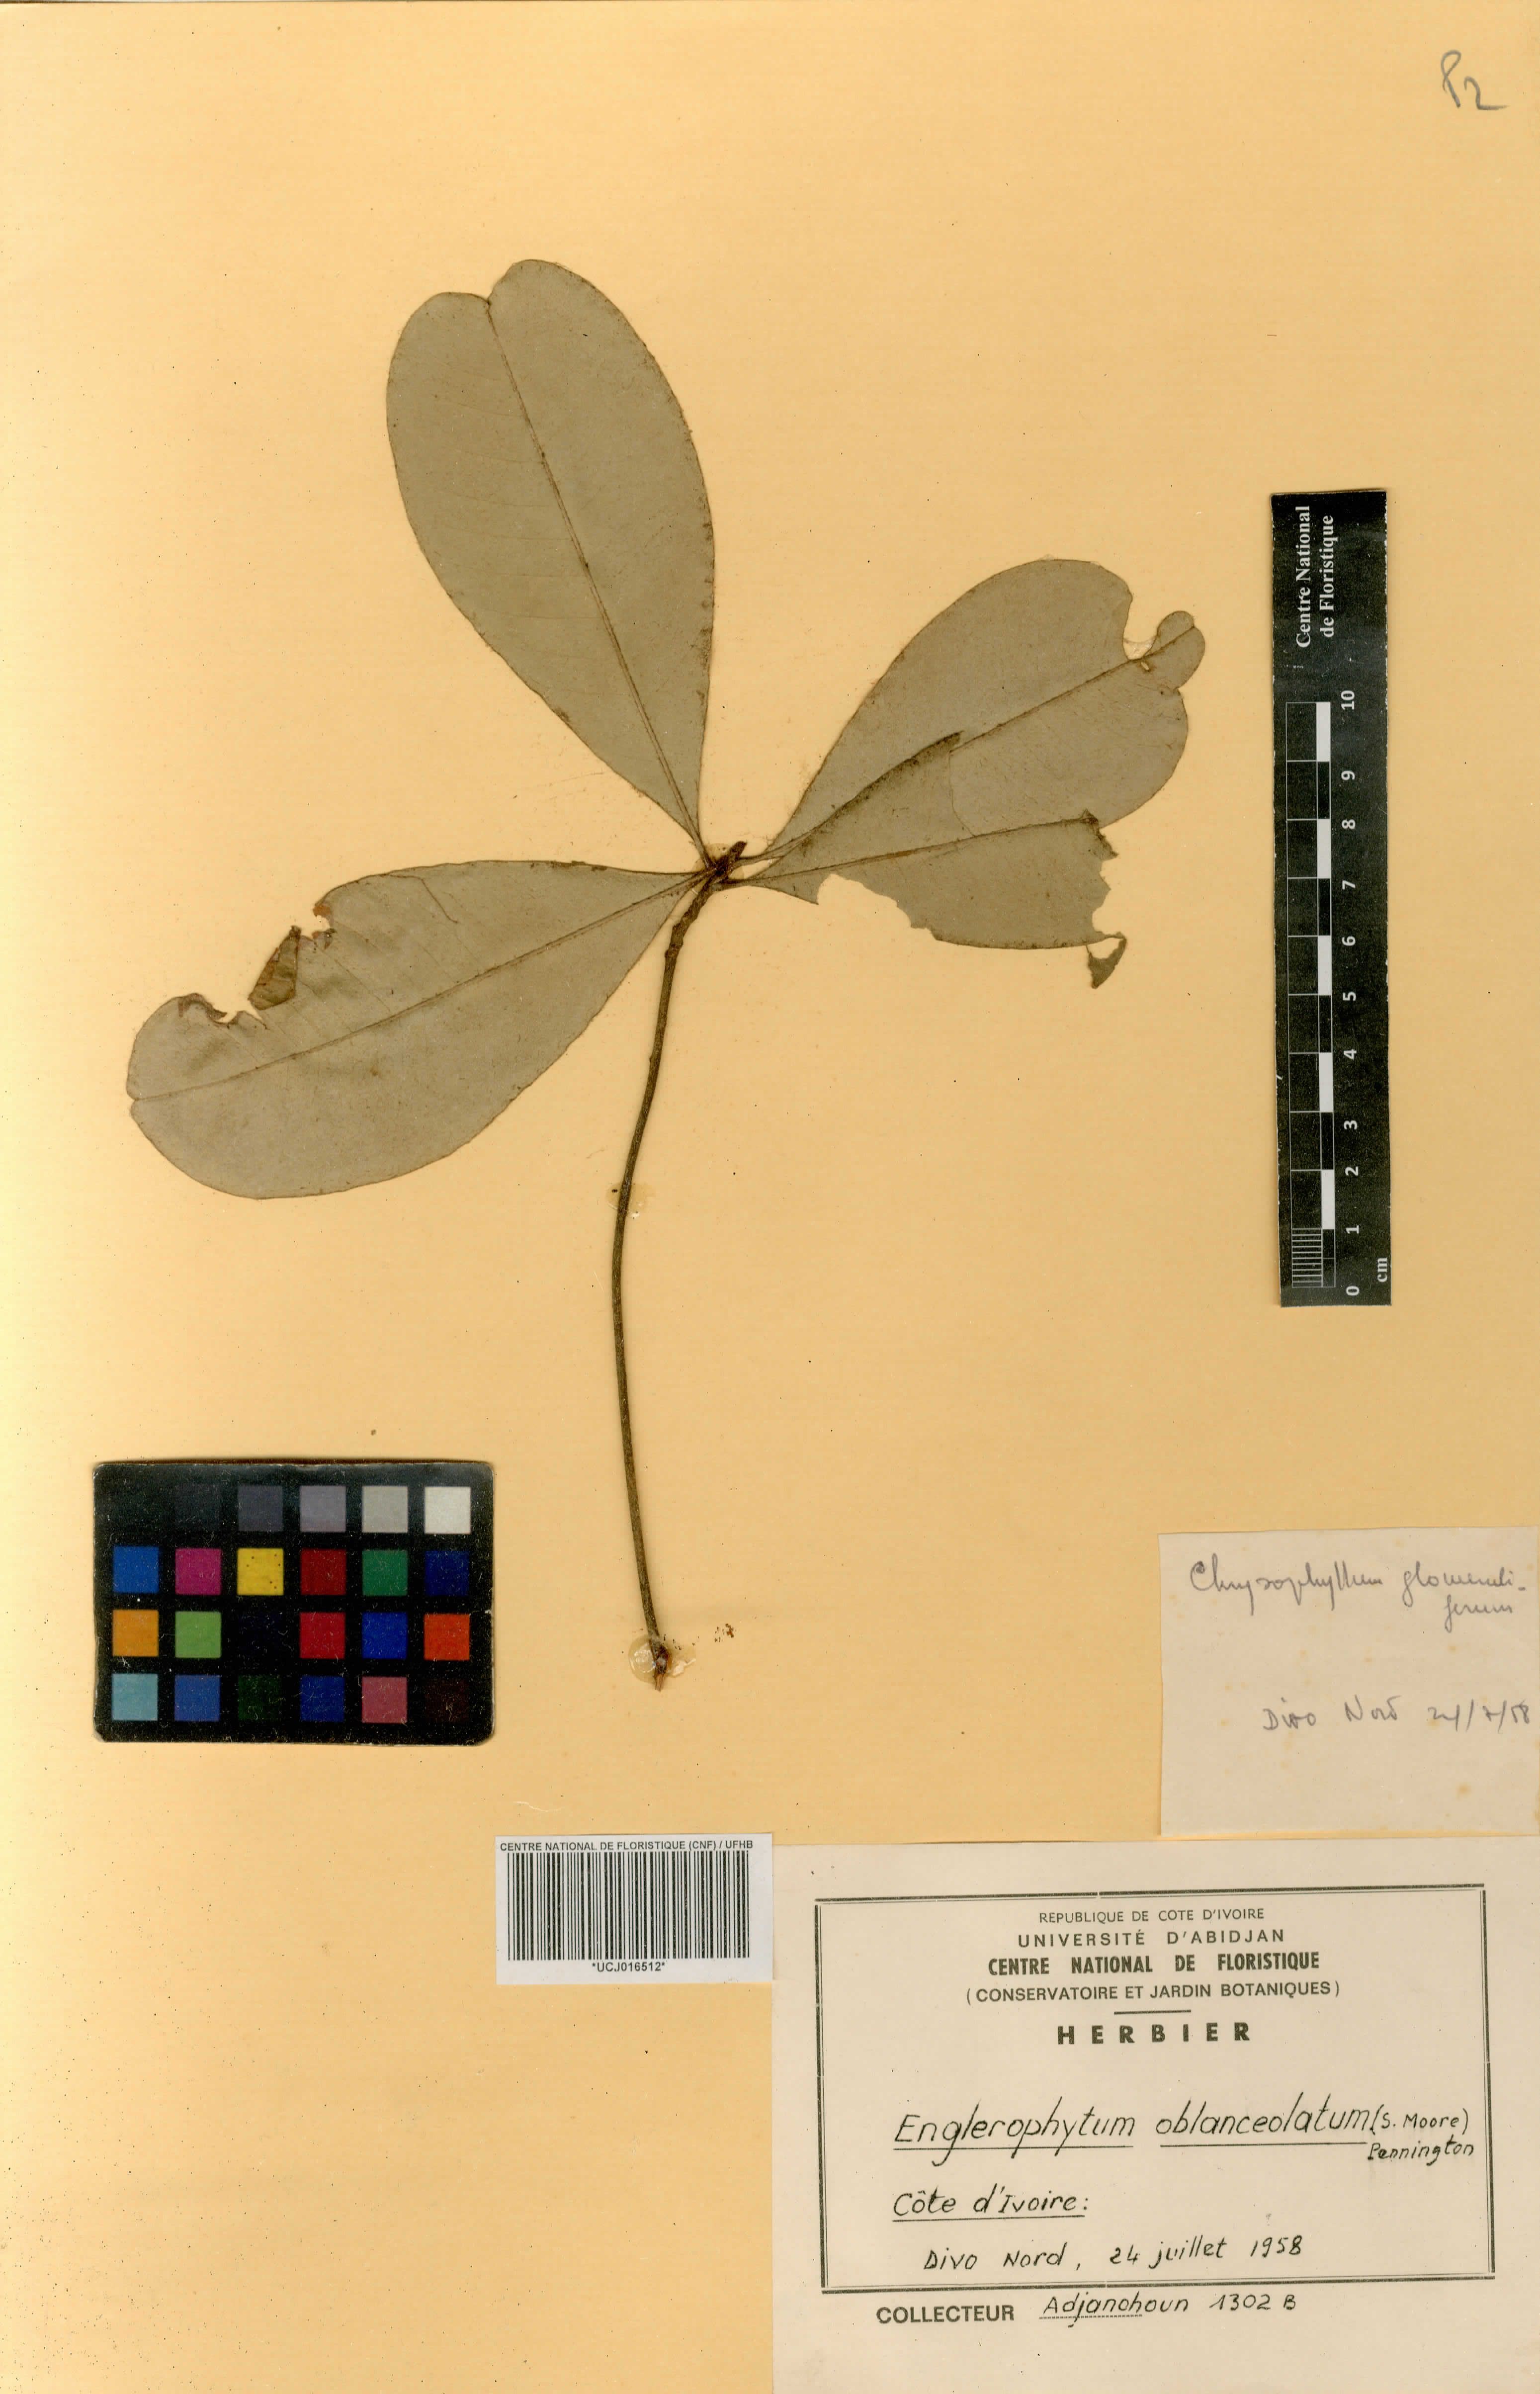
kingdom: Plantae
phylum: Tracheophyta
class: Magnoliopsida
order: Ericales
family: Sapotaceae
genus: Englerophytum
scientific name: Englerophytum oblanceolatum
